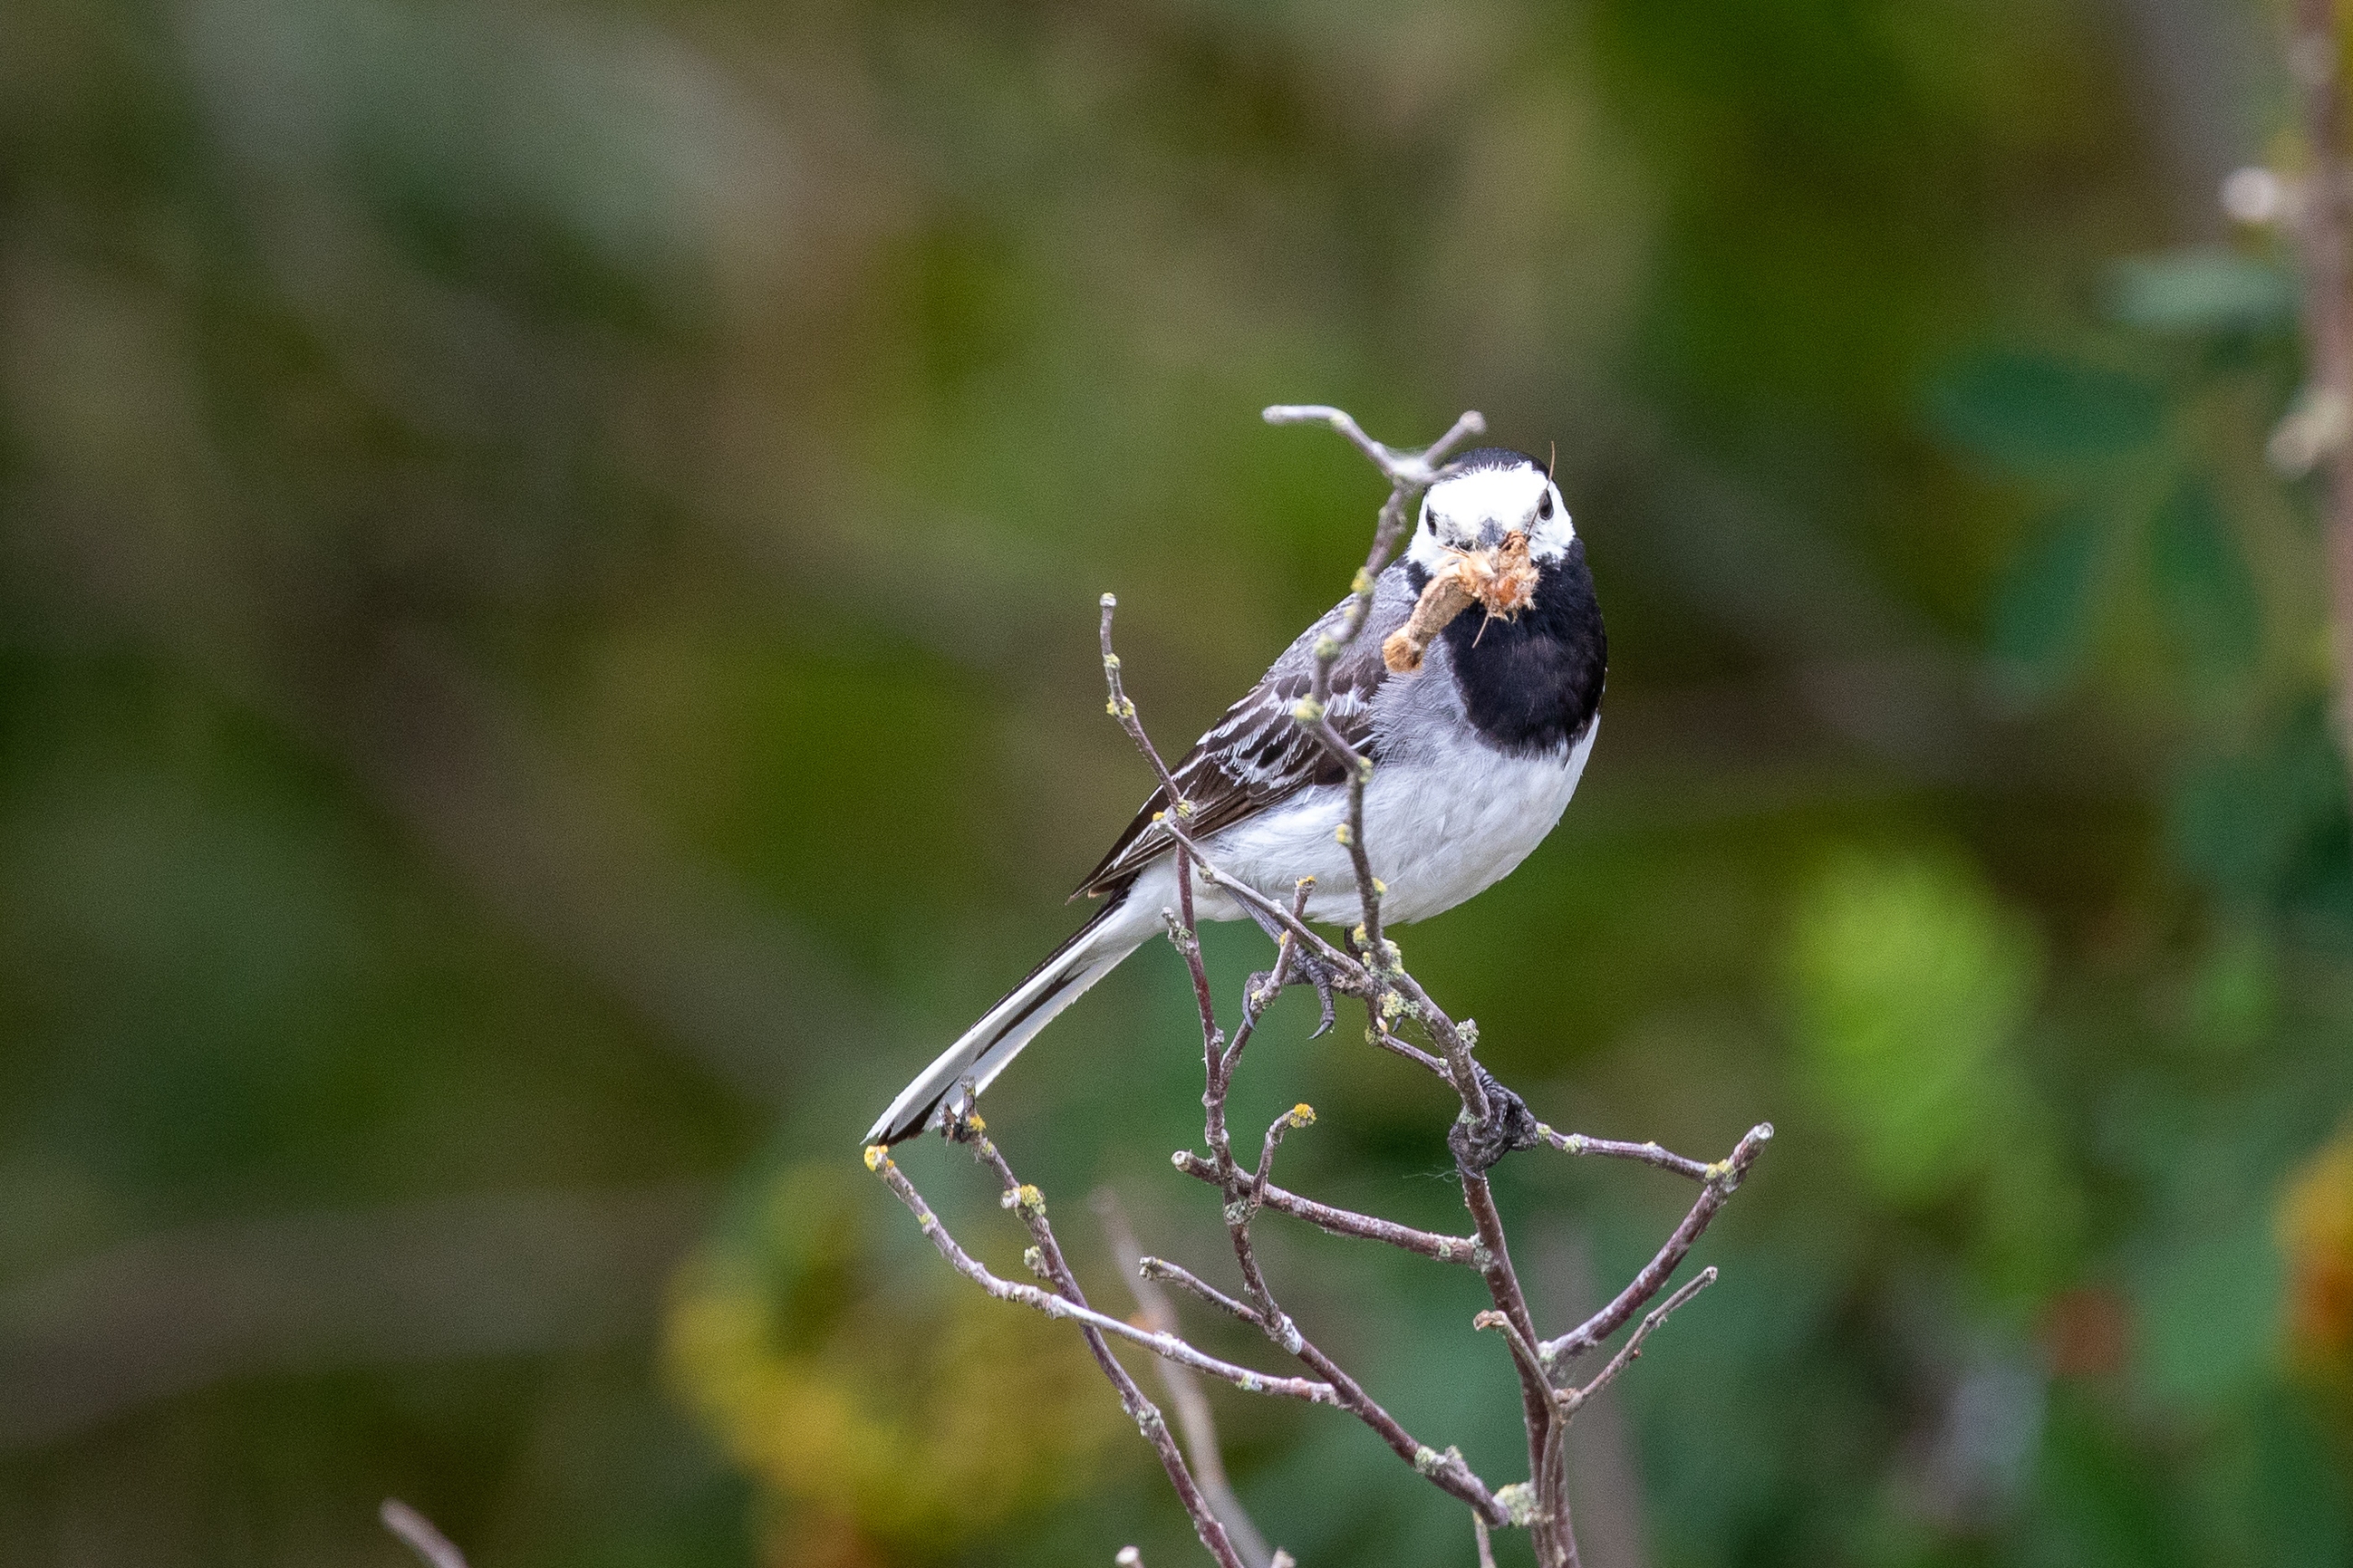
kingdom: Animalia
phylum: Chordata
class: Aves
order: Passeriformes
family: Motacillidae
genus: Motacilla
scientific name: Motacilla alba
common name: Hvid vipstjert
